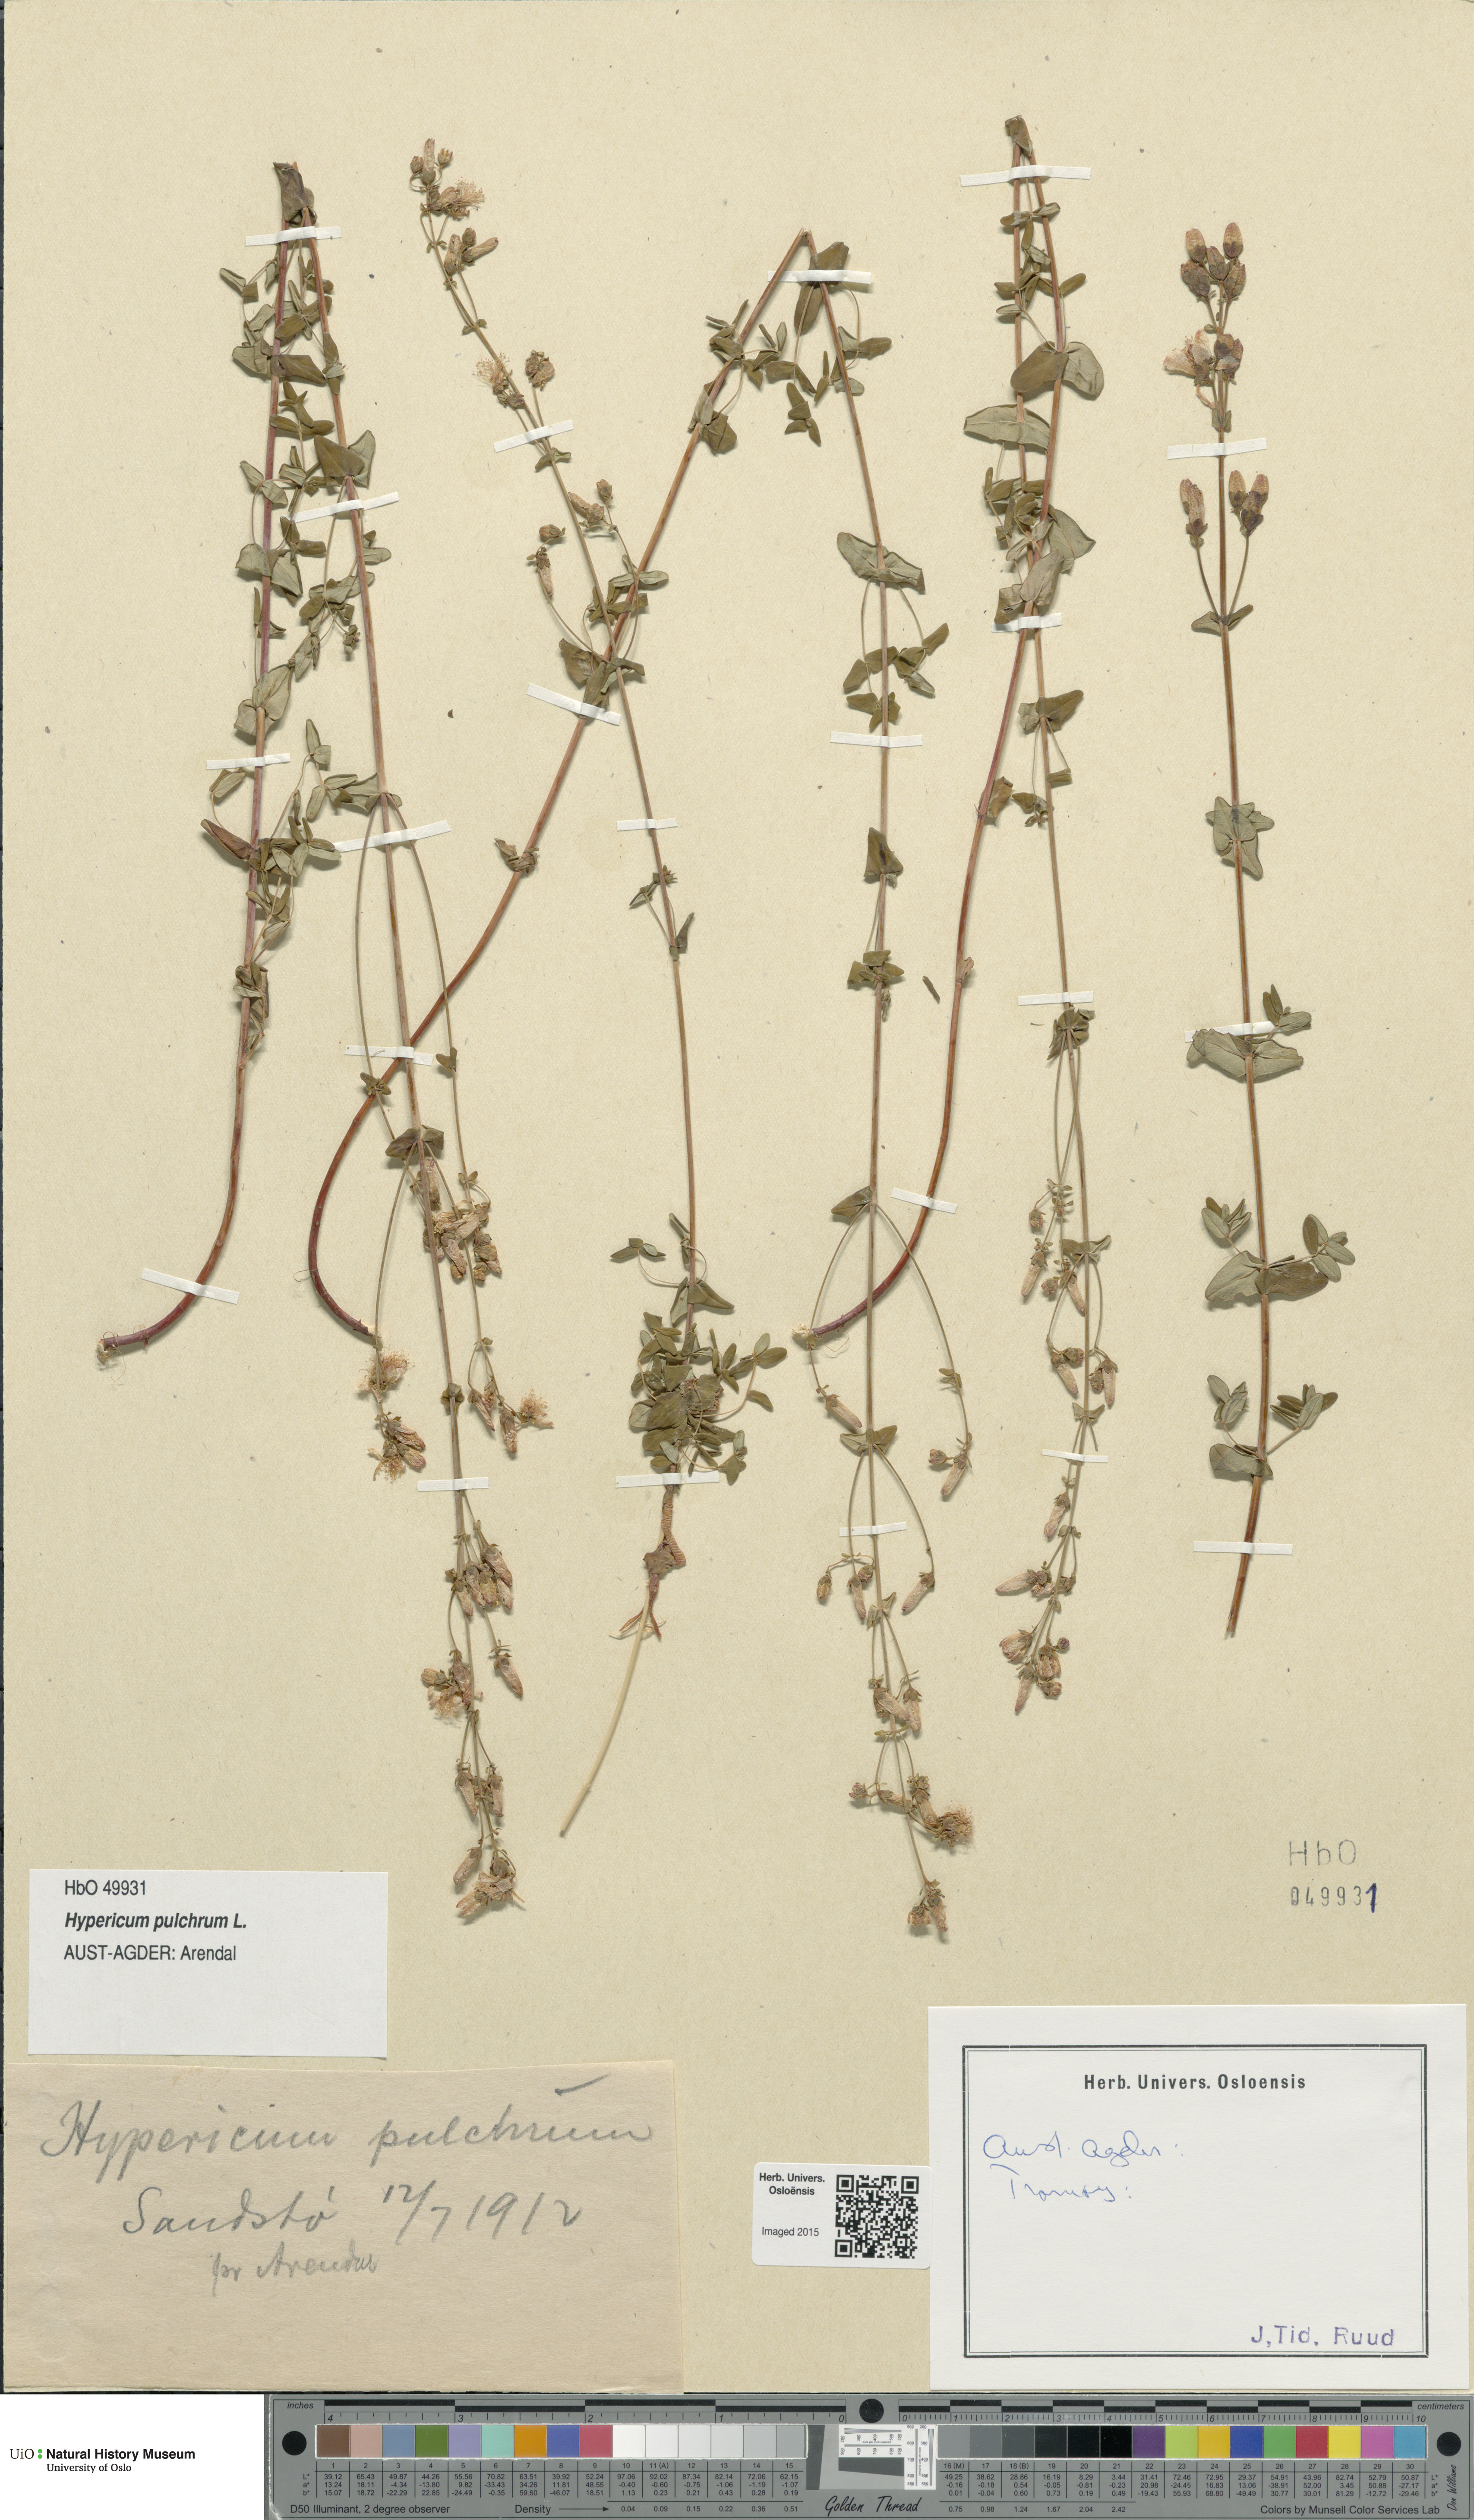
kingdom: Plantae
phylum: Tracheophyta
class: Magnoliopsida
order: Malpighiales
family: Hypericaceae
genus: Hypericum
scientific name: Hypericum pulchrum
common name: Slender st. john's-wort
